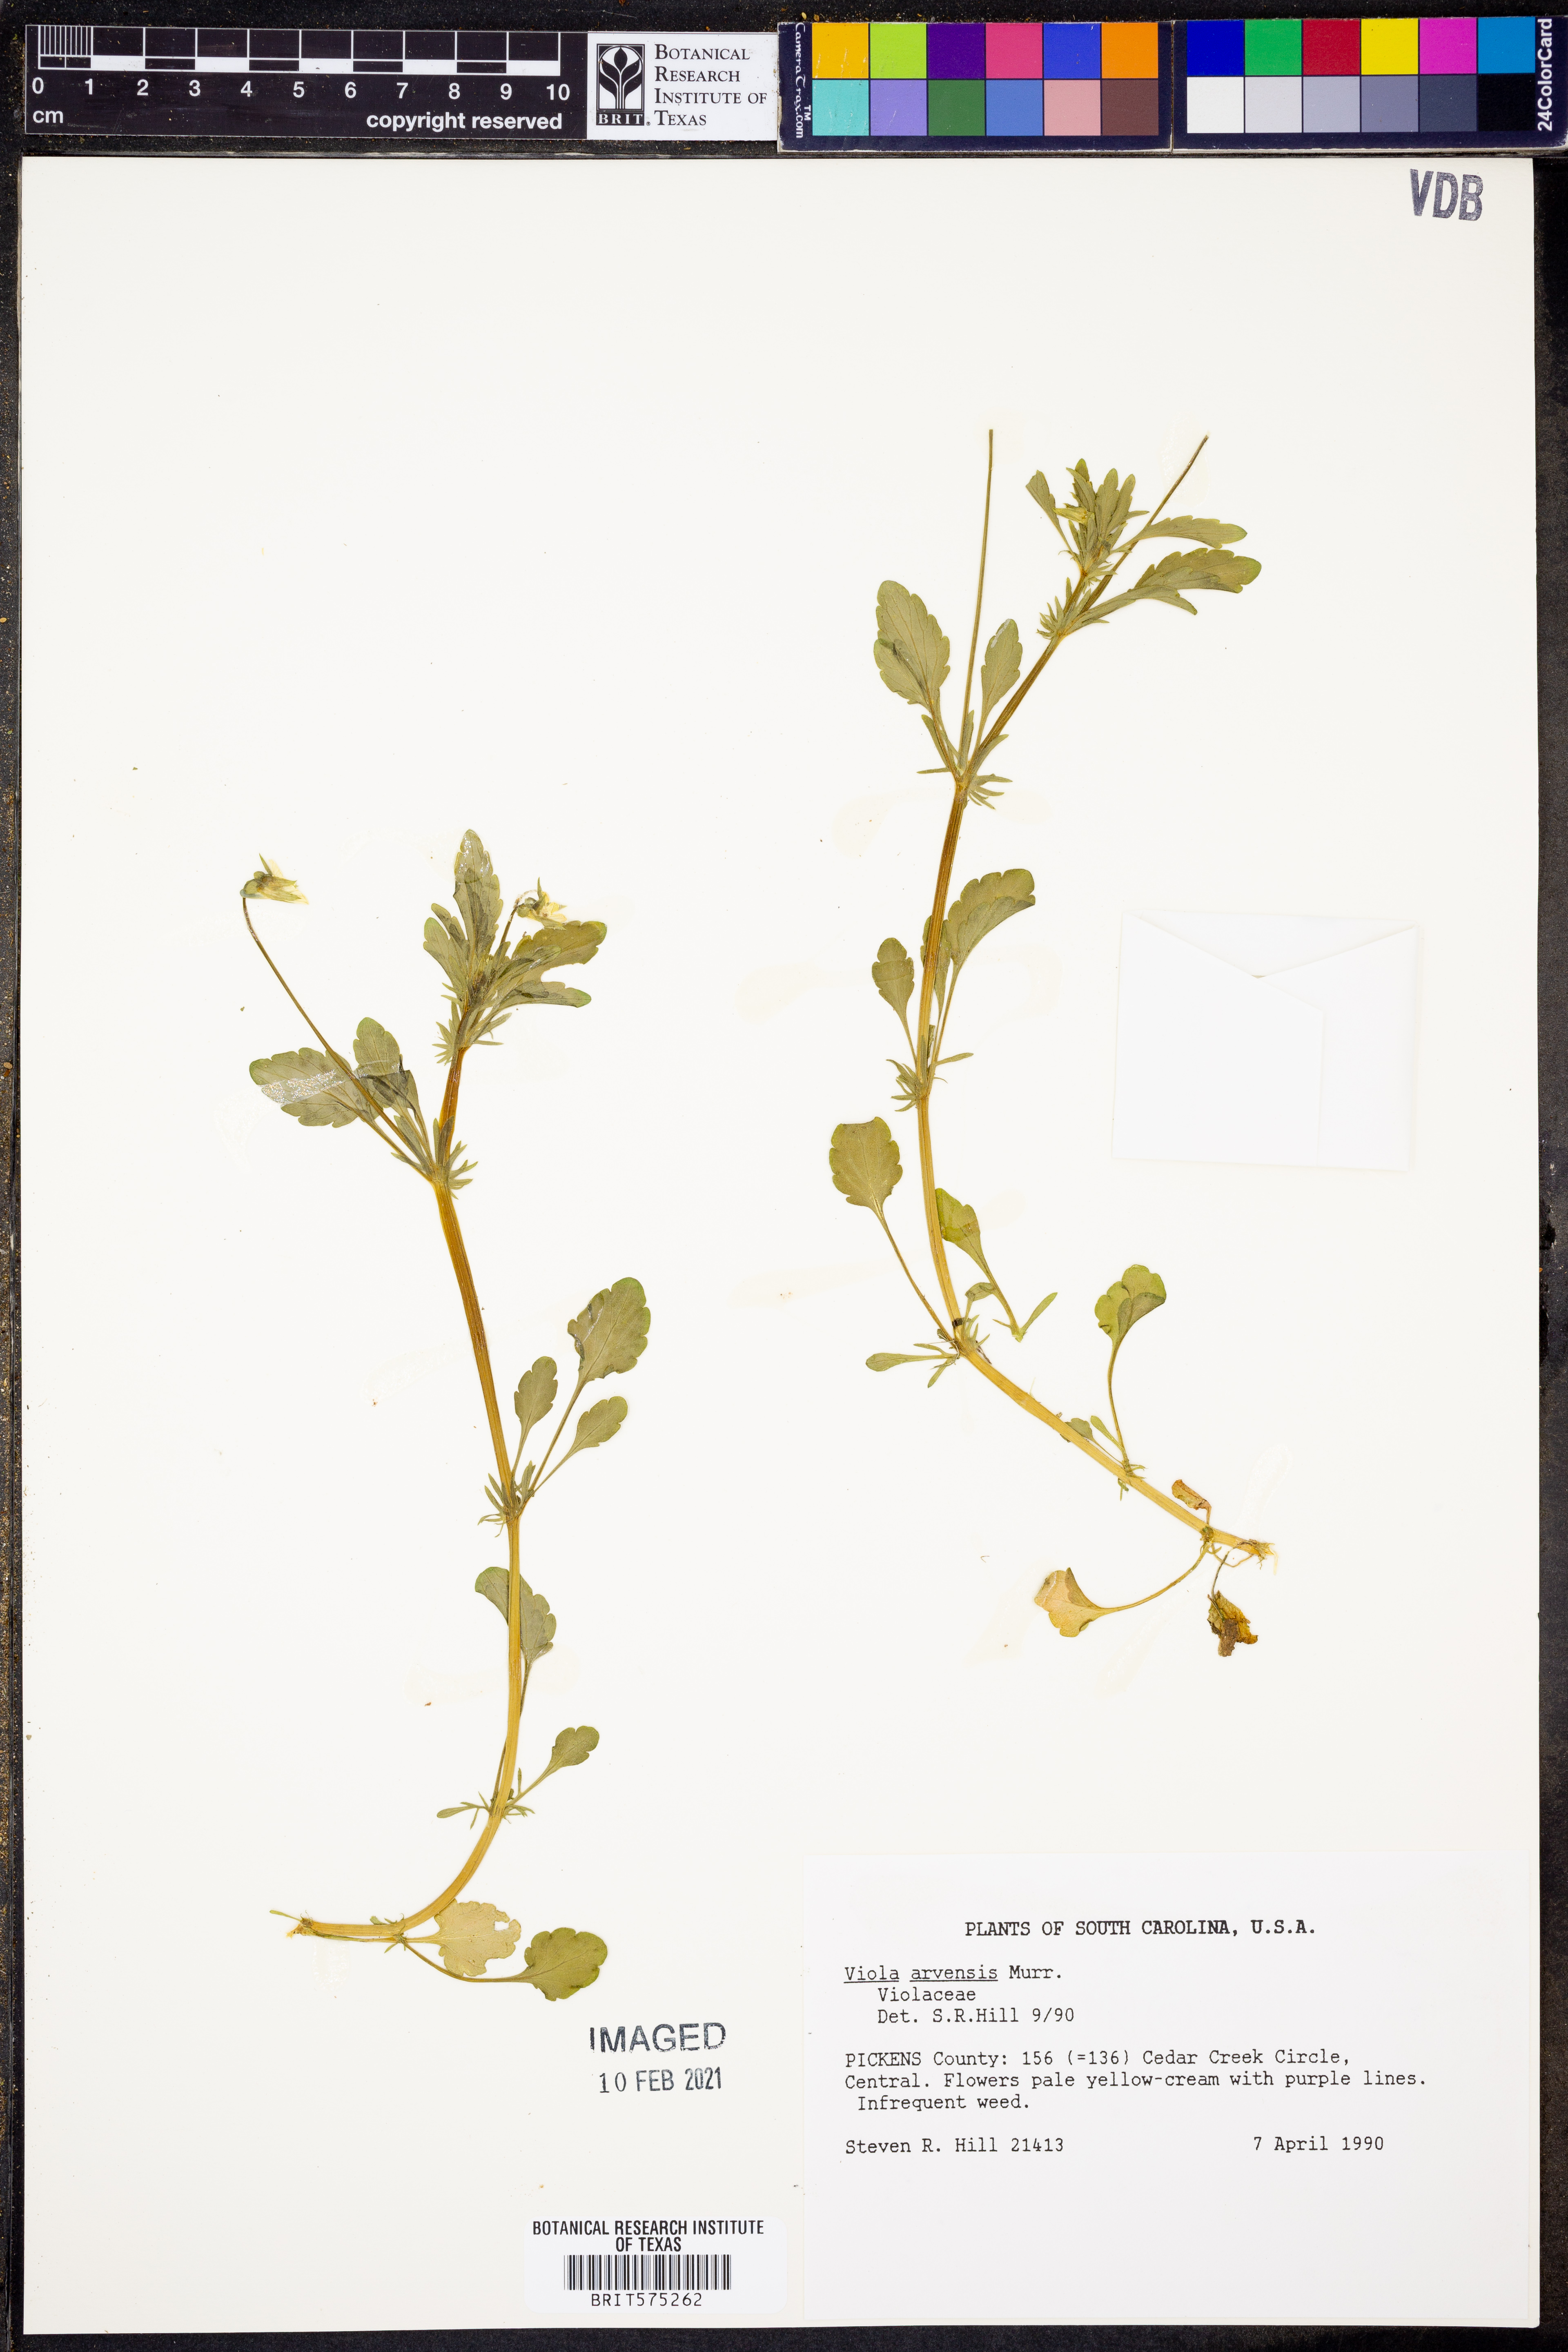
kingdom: Plantae
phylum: Tracheophyta
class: Magnoliopsida
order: Malpighiales
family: Violaceae
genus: Viola
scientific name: Viola arvensis
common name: Field pansy
